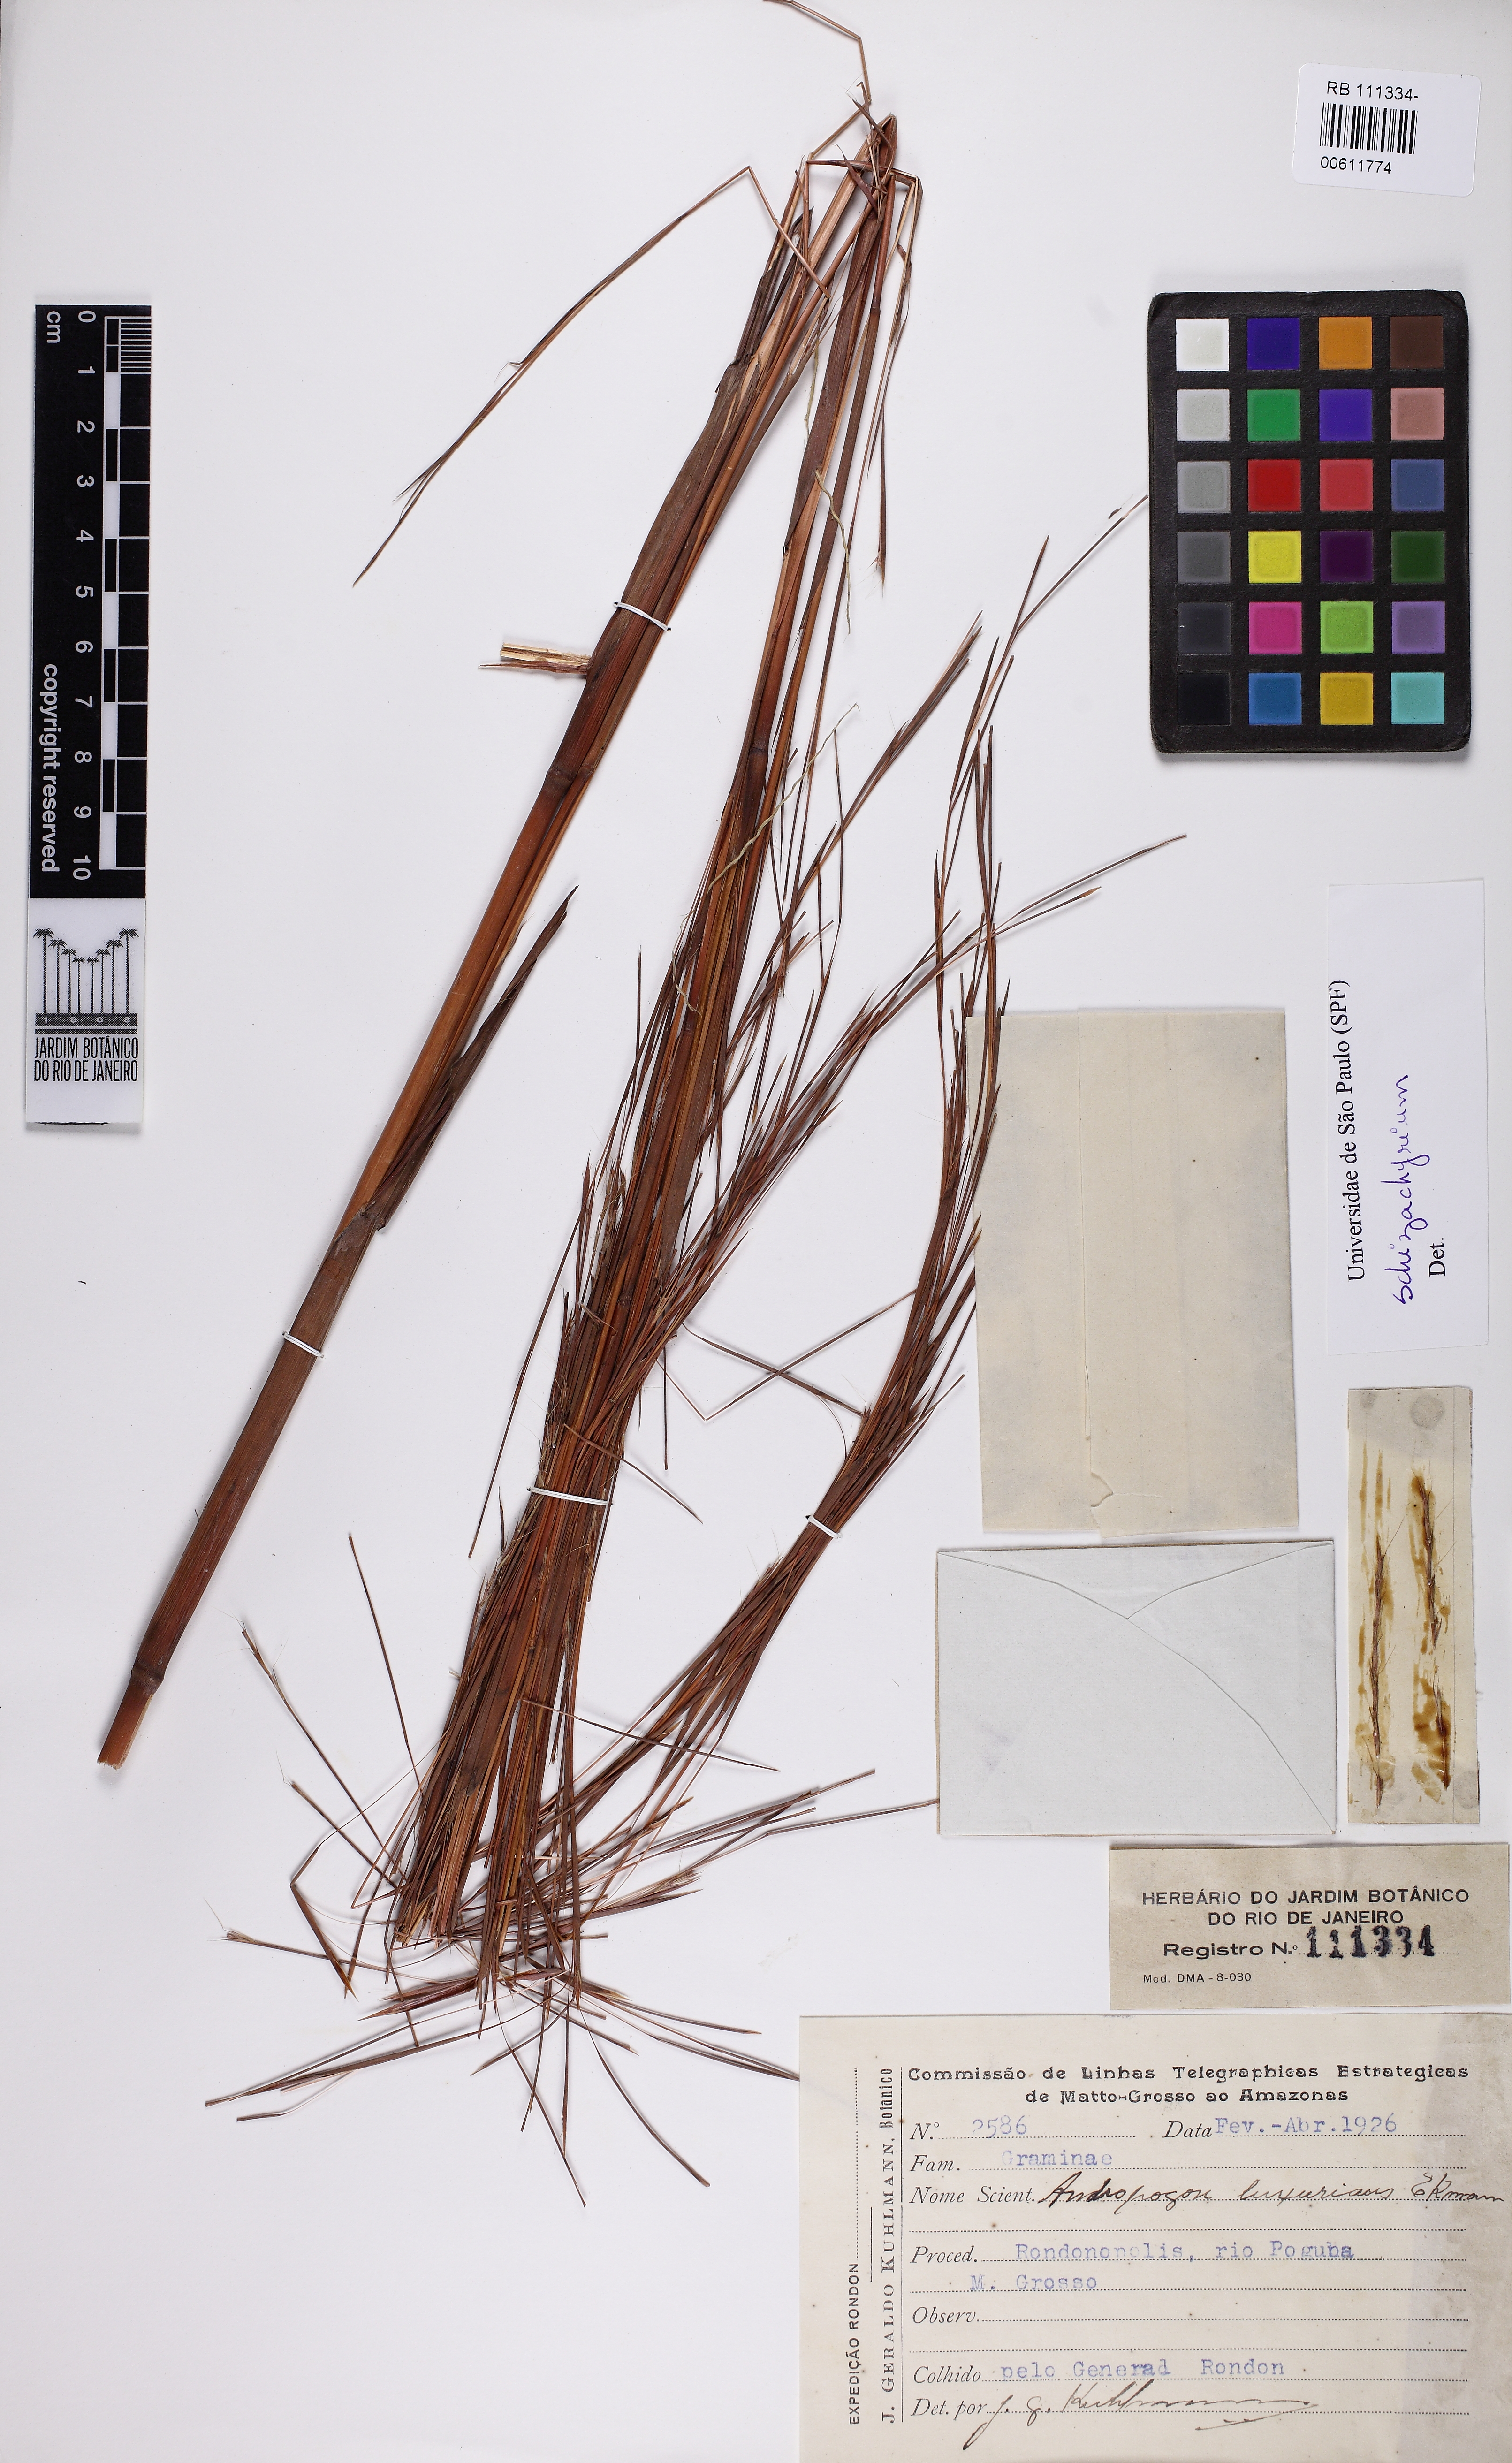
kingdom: Plantae
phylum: Tracheophyta
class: Liliopsida
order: Poales
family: Poaceae
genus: Schizachyrium
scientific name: Schizachyrium luxurians
